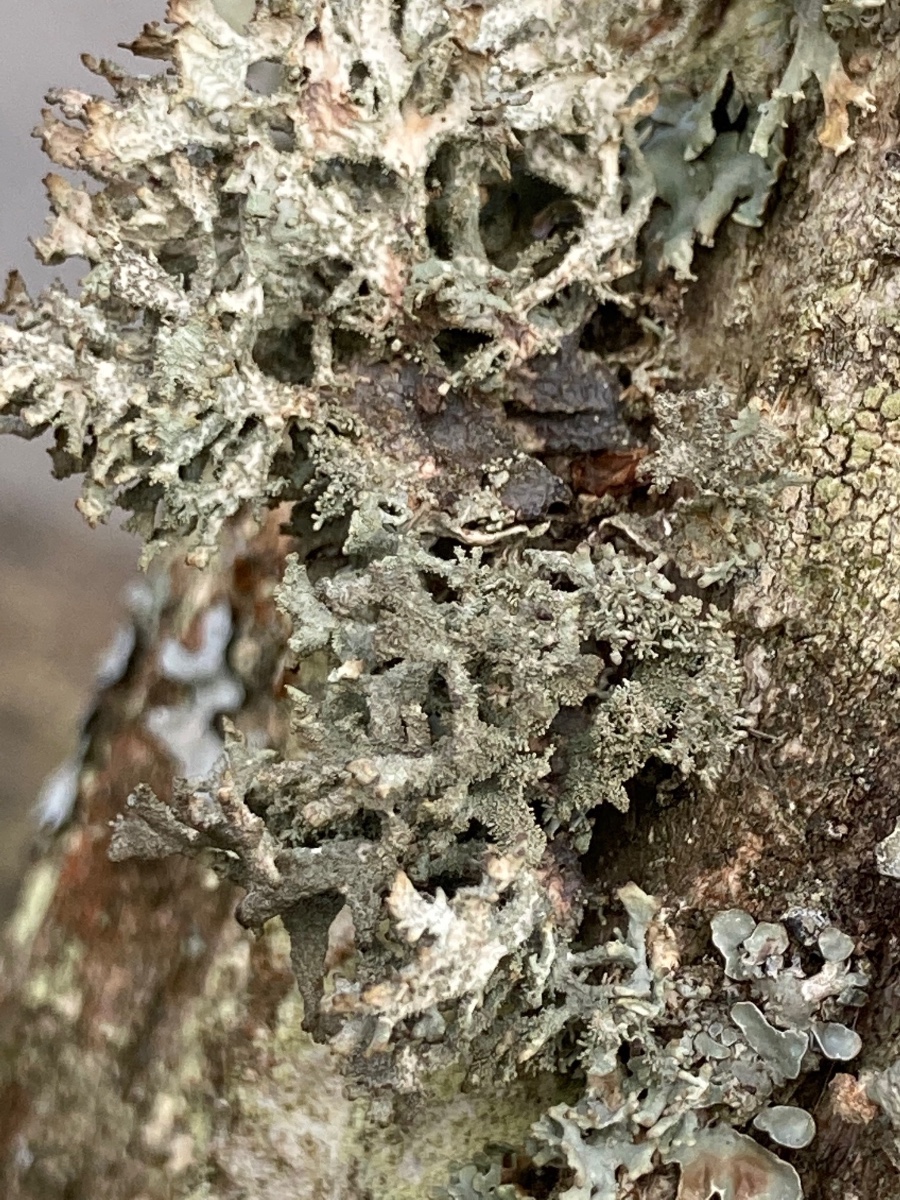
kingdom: Fungi
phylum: Ascomycota
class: Lecanoromycetes
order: Lecanorales
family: Parmeliaceae
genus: Pseudevernia
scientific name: Pseudevernia furfuracea
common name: grå fyrrelav
